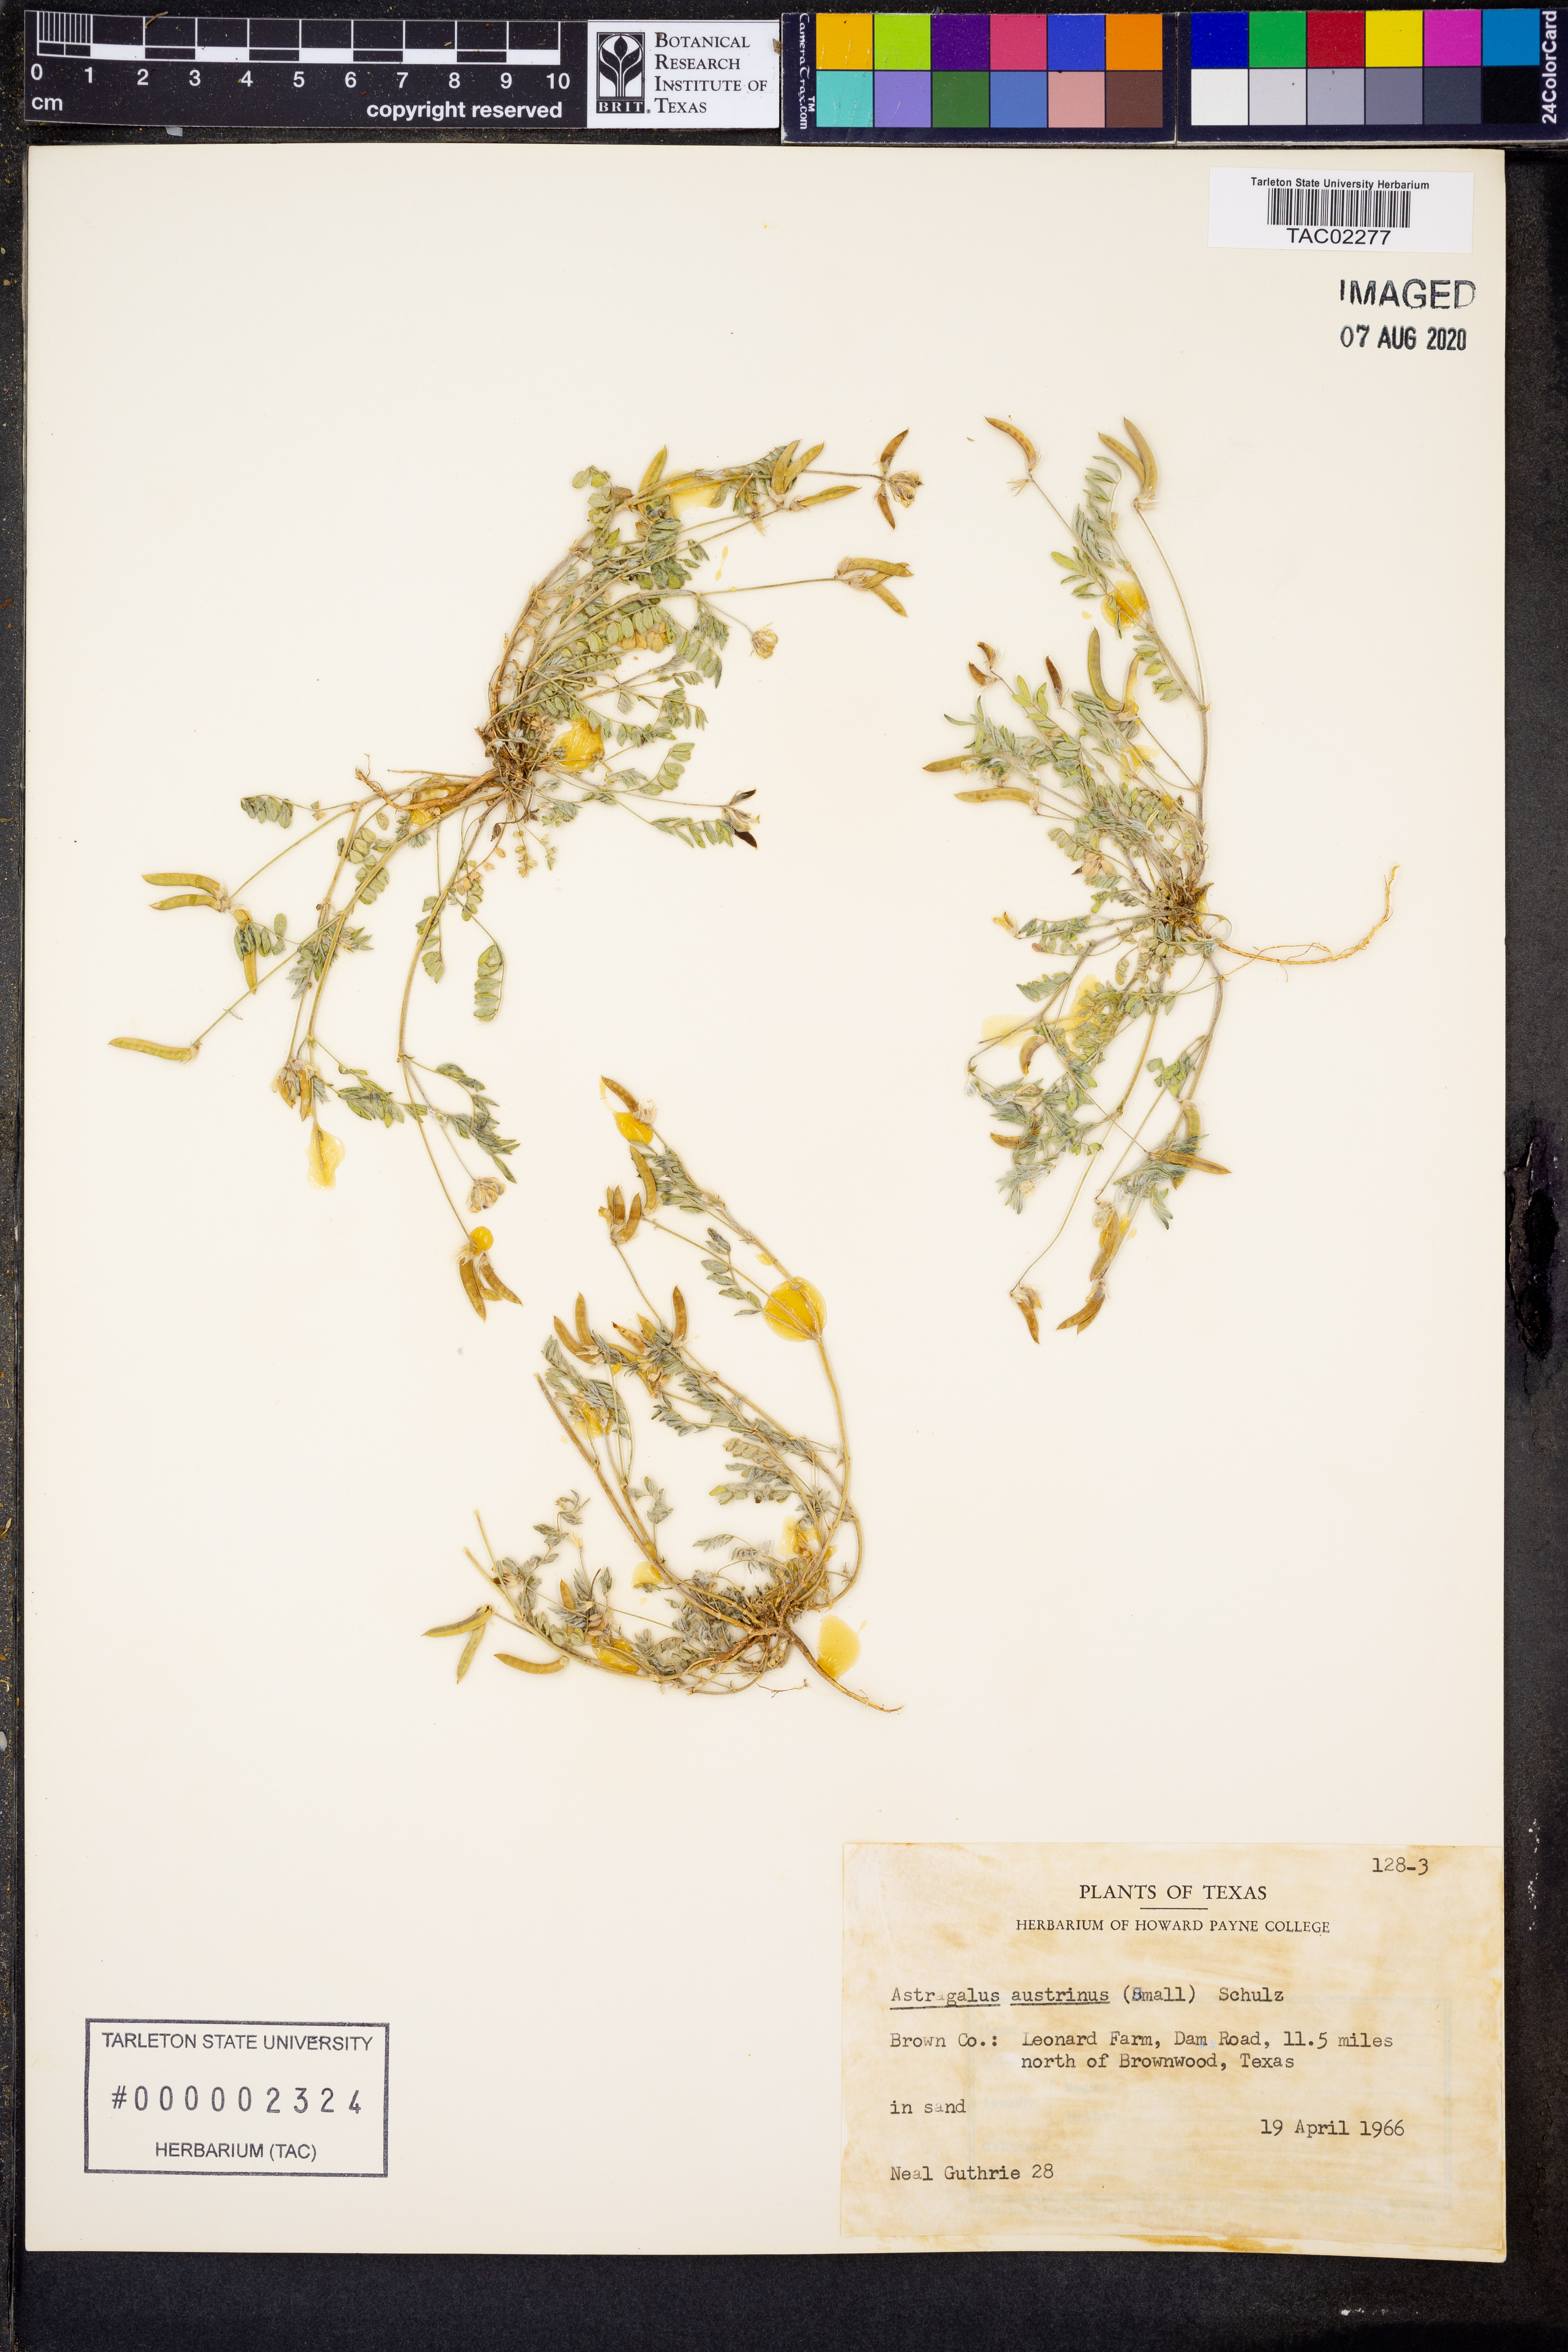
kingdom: Plantae
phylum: Tracheophyta
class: Magnoliopsida
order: Fabales
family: Fabaceae
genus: Astragalus
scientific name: Astragalus nuttallianus
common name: Smallflowered milkvetch
